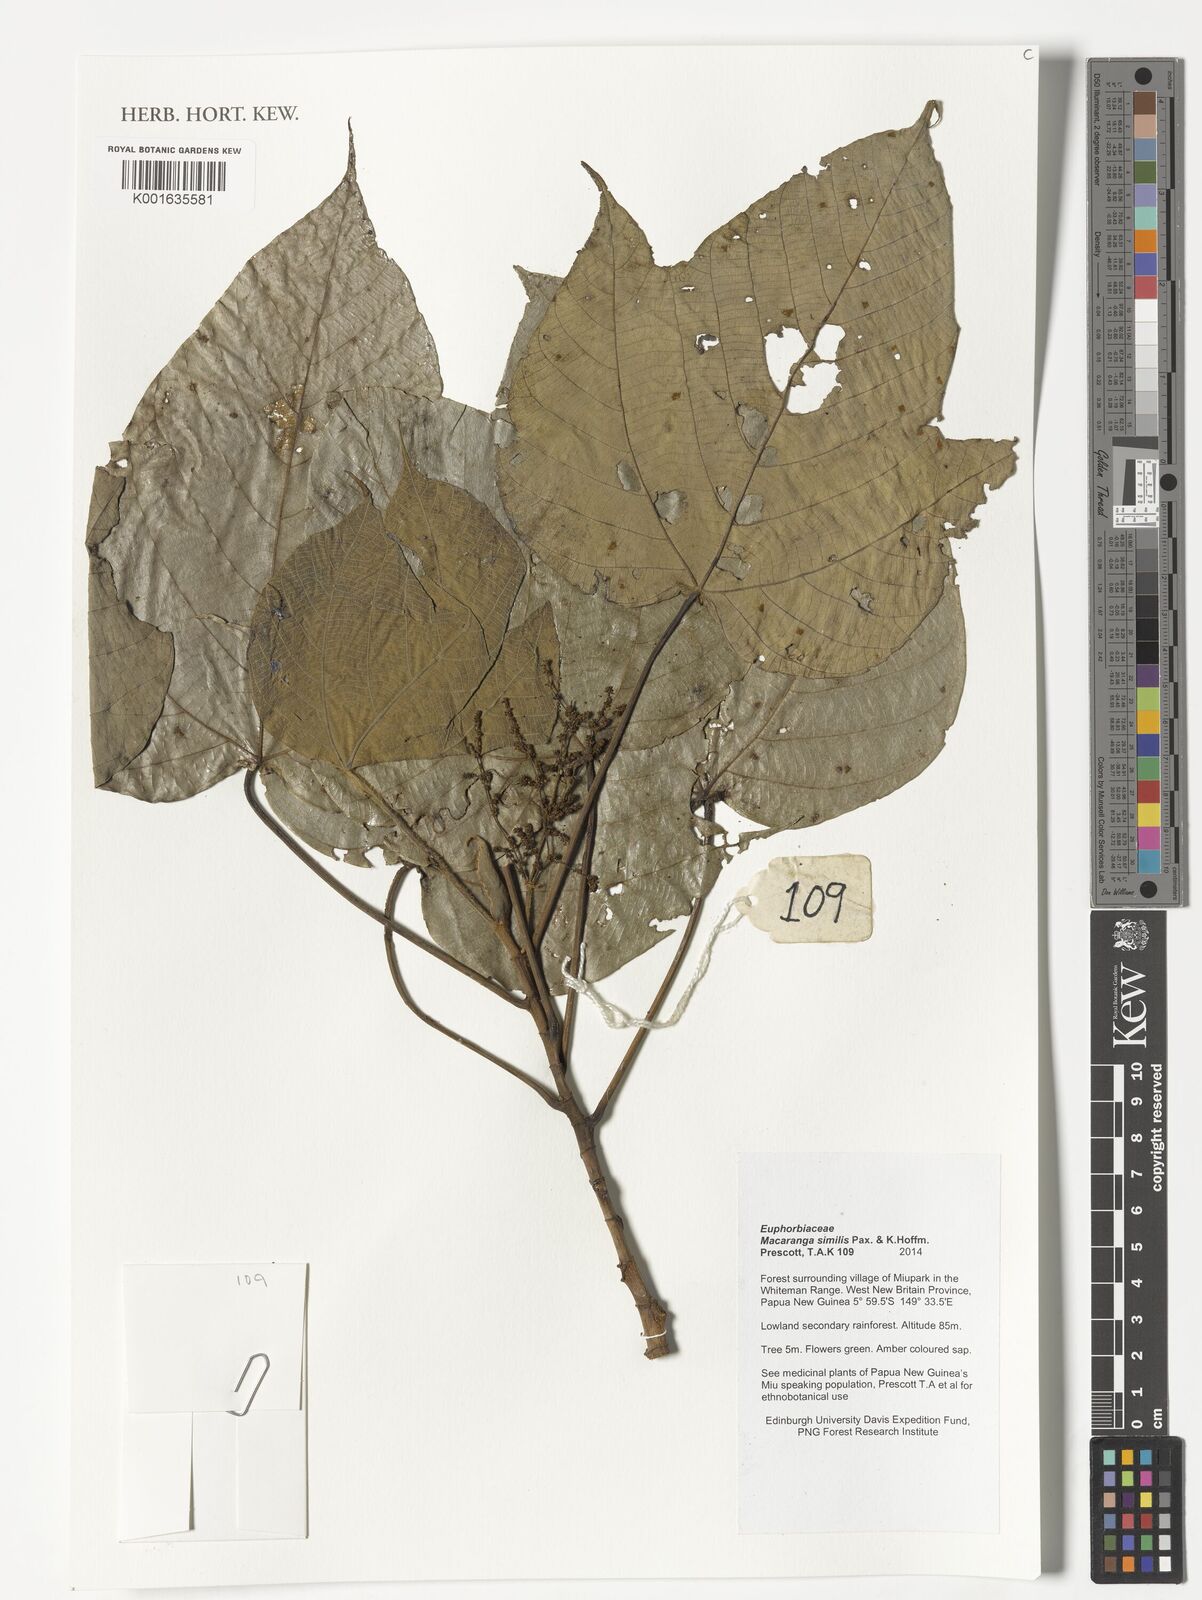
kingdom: Plantae
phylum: Tracheophyta
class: Magnoliopsida
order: Malpighiales
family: Euphorbiaceae
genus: Macaranga
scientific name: Macaranga similis
